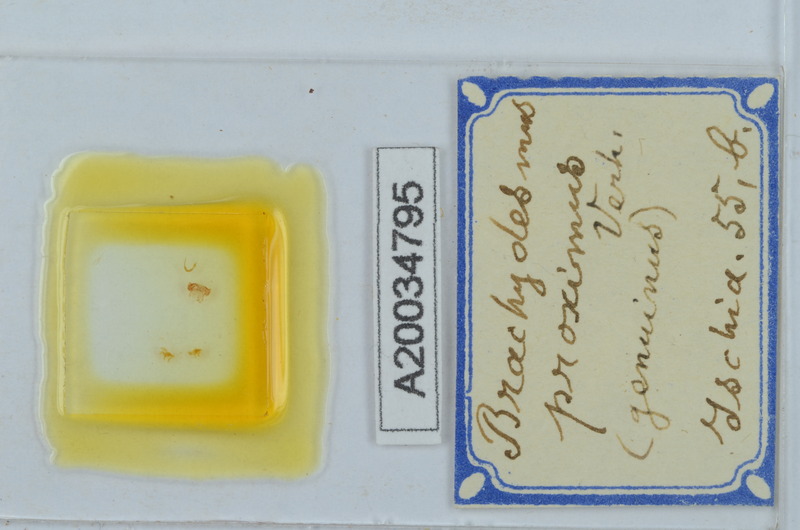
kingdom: Animalia
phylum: Arthropoda
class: Diplopoda
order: Polydesmida
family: Polydesmidae
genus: Brachydesmus
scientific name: Brachydesmus proximus
